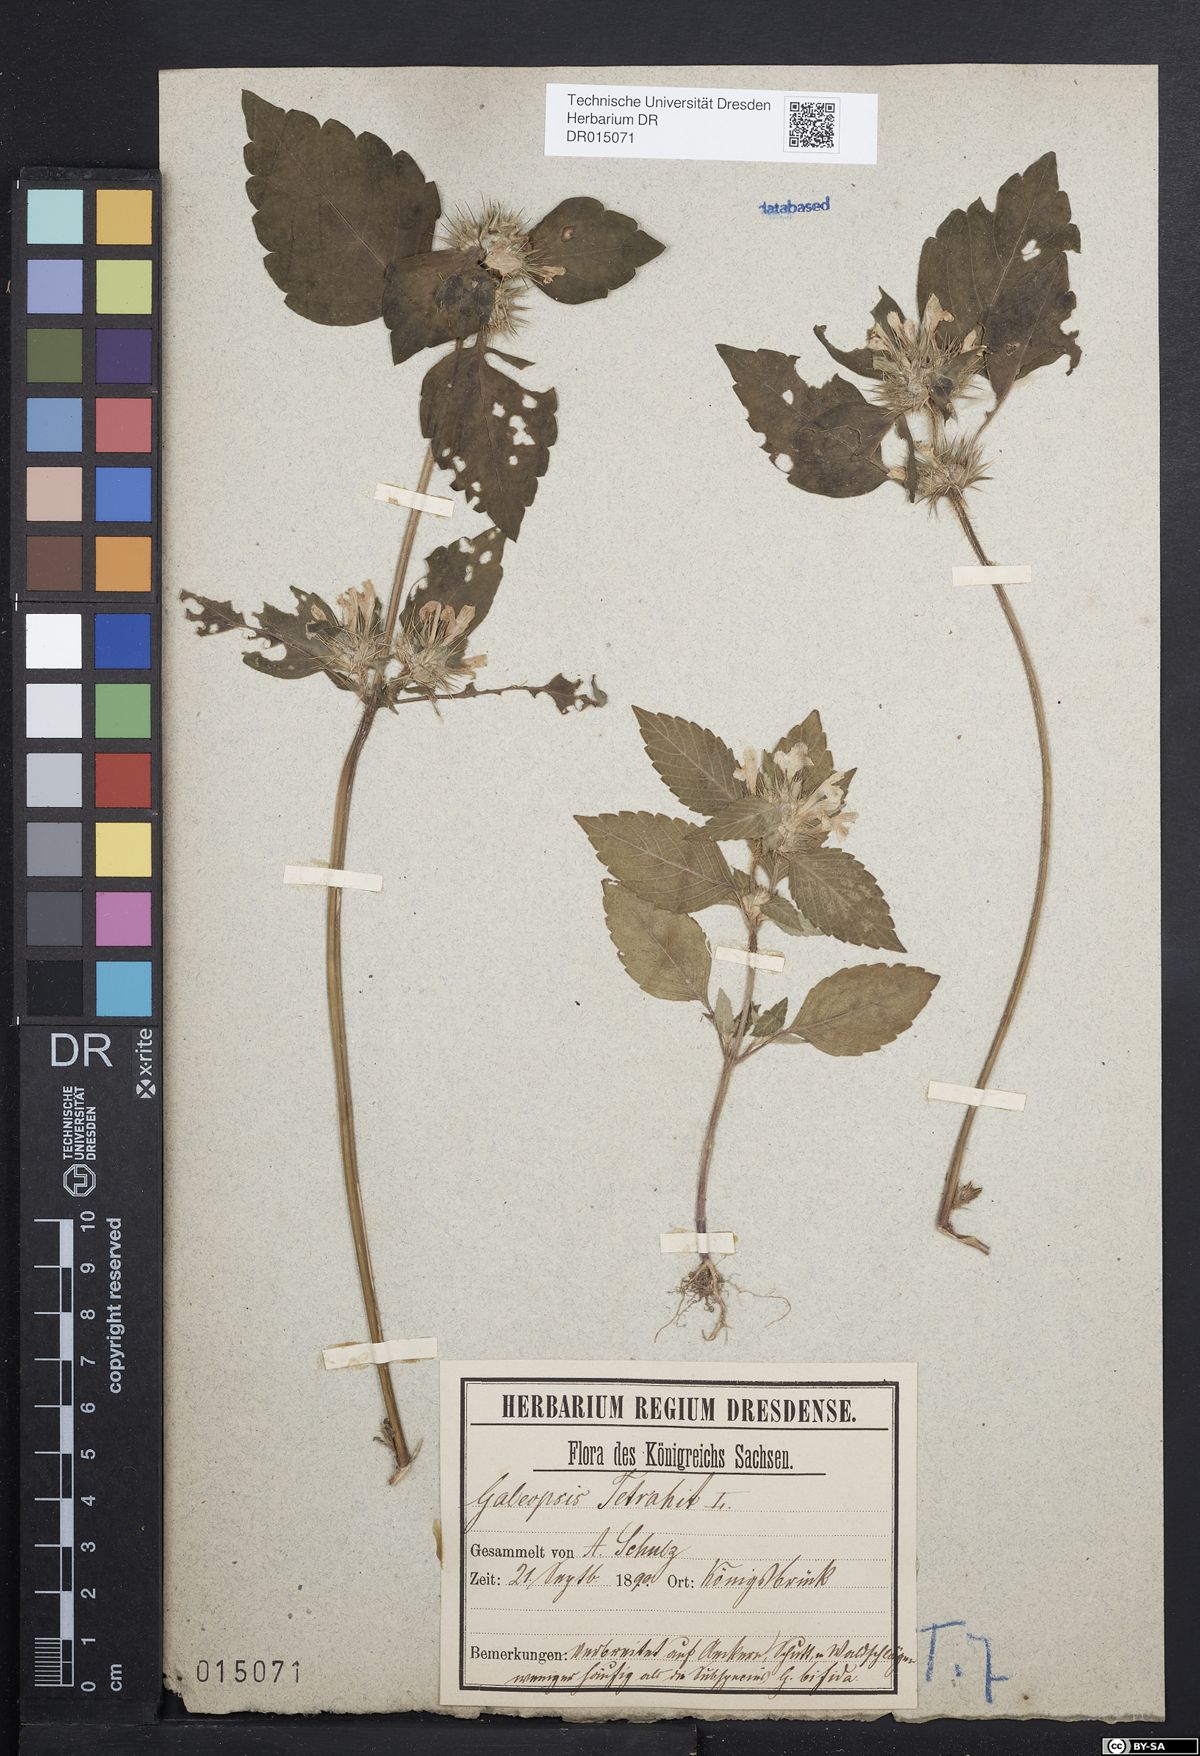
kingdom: Plantae
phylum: Tracheophyta
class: Magnoliopsida
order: Lamiales
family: Lamiaceae
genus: Galeopsis
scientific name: Galeopsis tetrahit
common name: Common hemp-nettle
